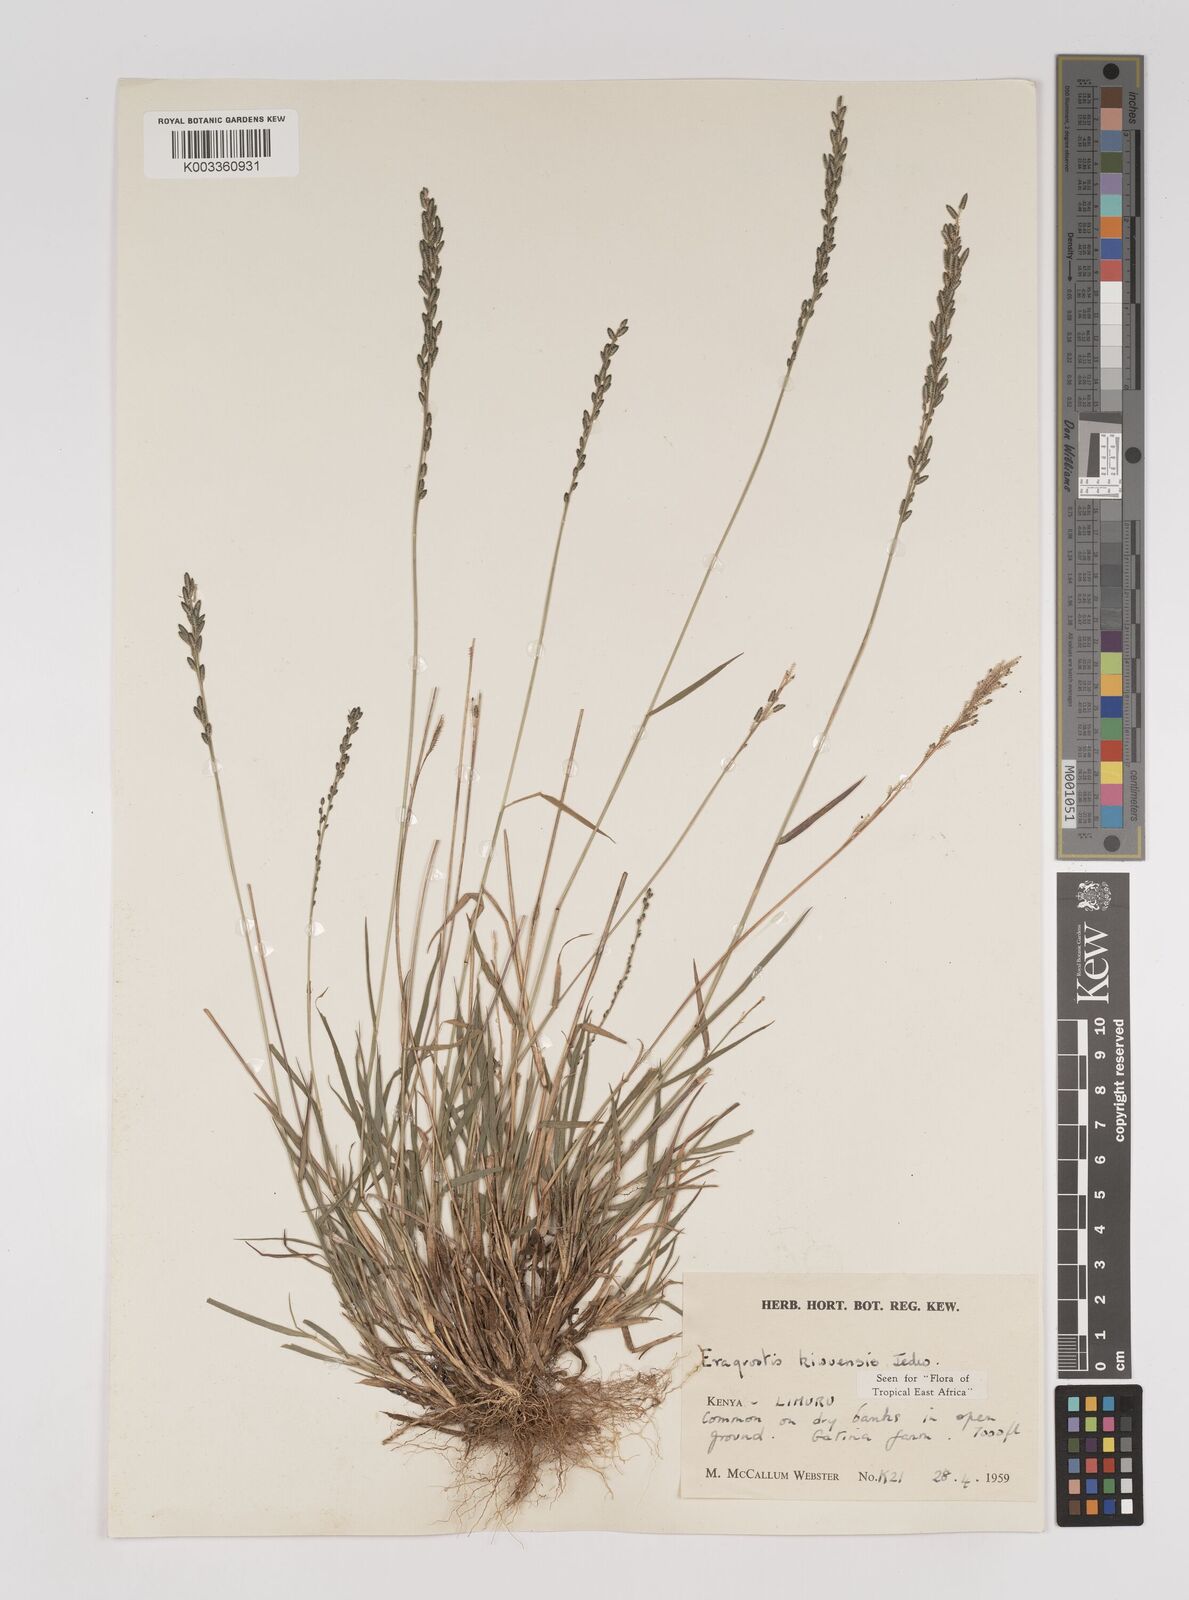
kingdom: Plantae
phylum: Tracheophyta
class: Liliopsida
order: Poales
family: Poaceae
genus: Eragrostis
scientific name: Eragrostis schweinfurthii
